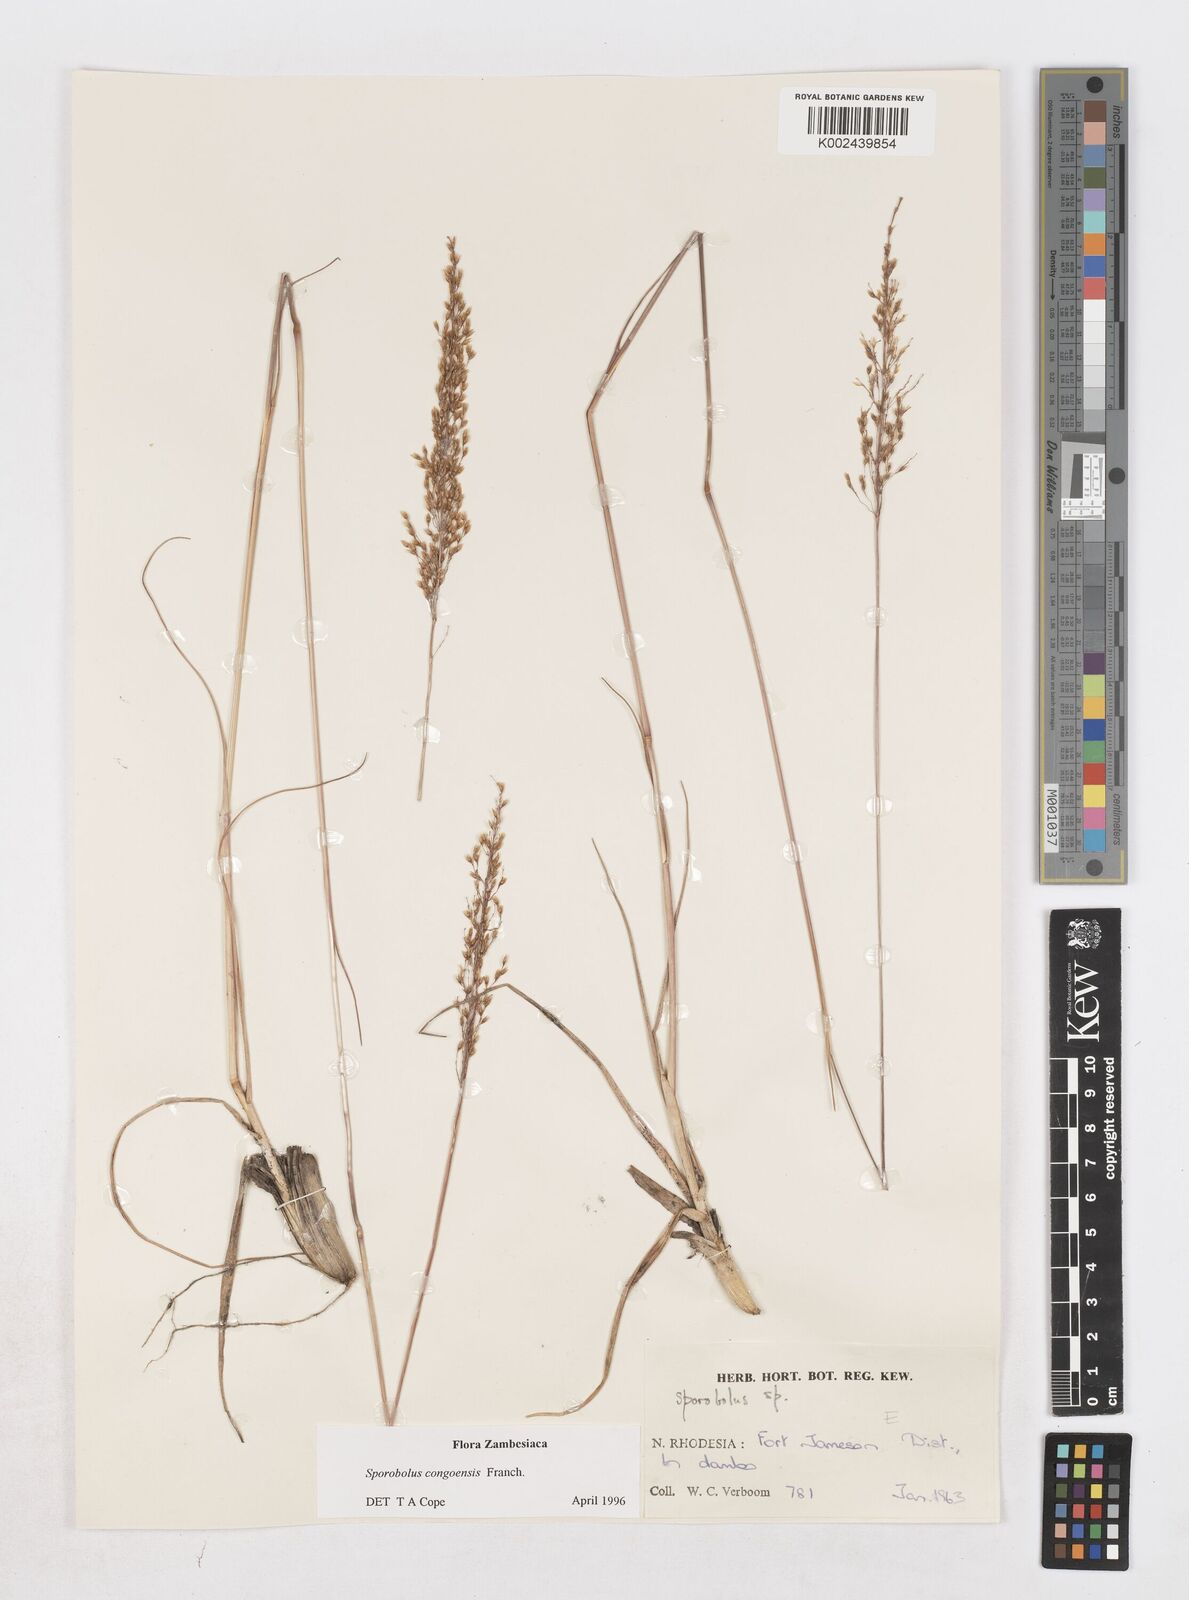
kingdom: Plantae
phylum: Tracheophyta
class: Liliopsida
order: Poales
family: Poaceae
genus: Sporobolus
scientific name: Sporobolus congoensis
